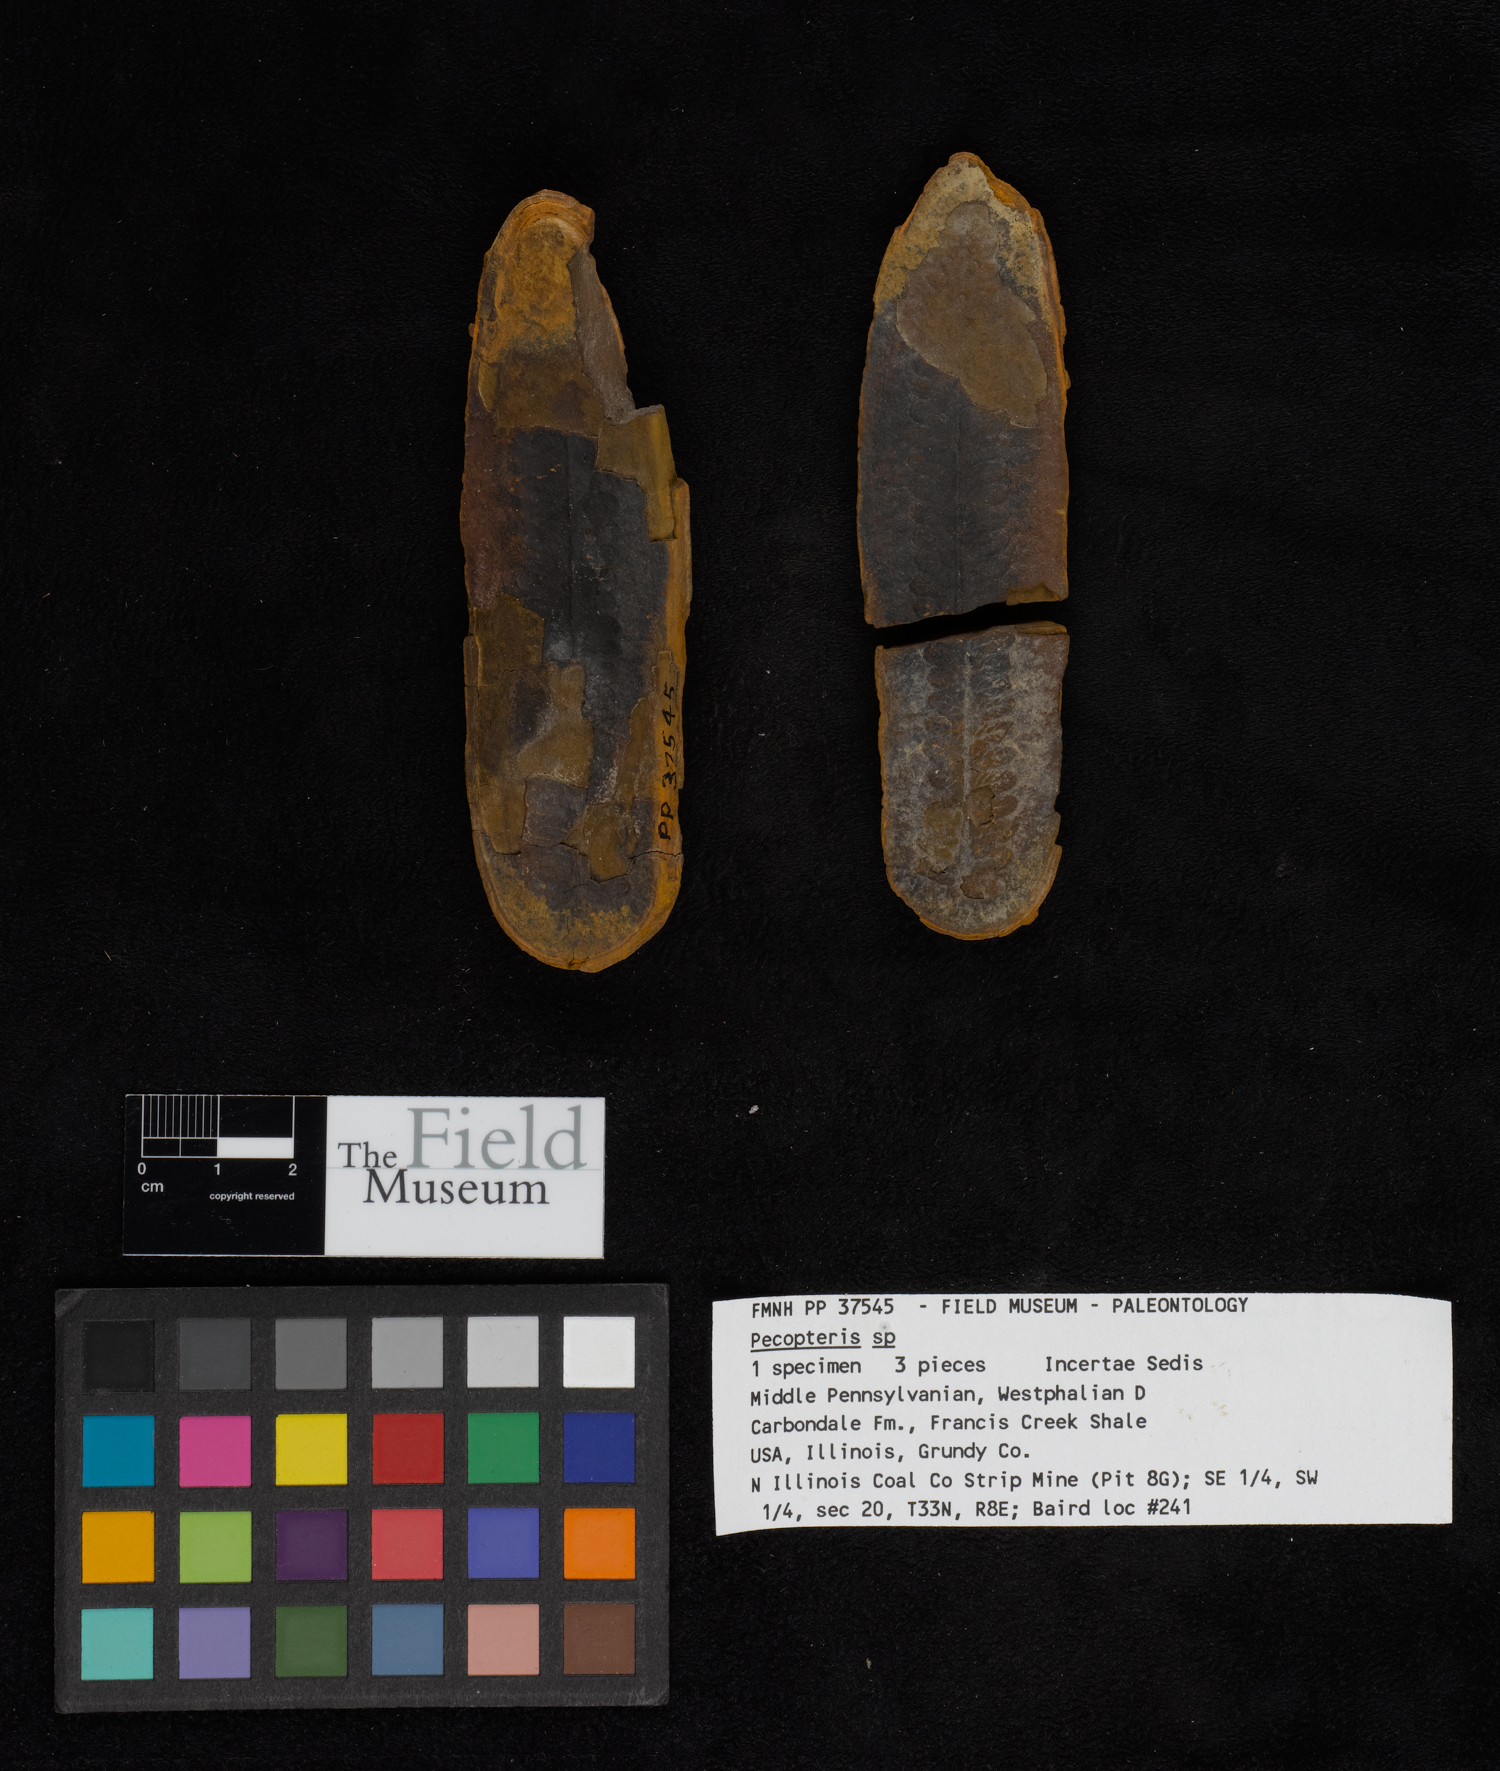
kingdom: Plantae
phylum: Tracheophyta
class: Polypodiopsida
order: Marattiales
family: Asterothecaceae
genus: Pecopteris
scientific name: Pecopteris
